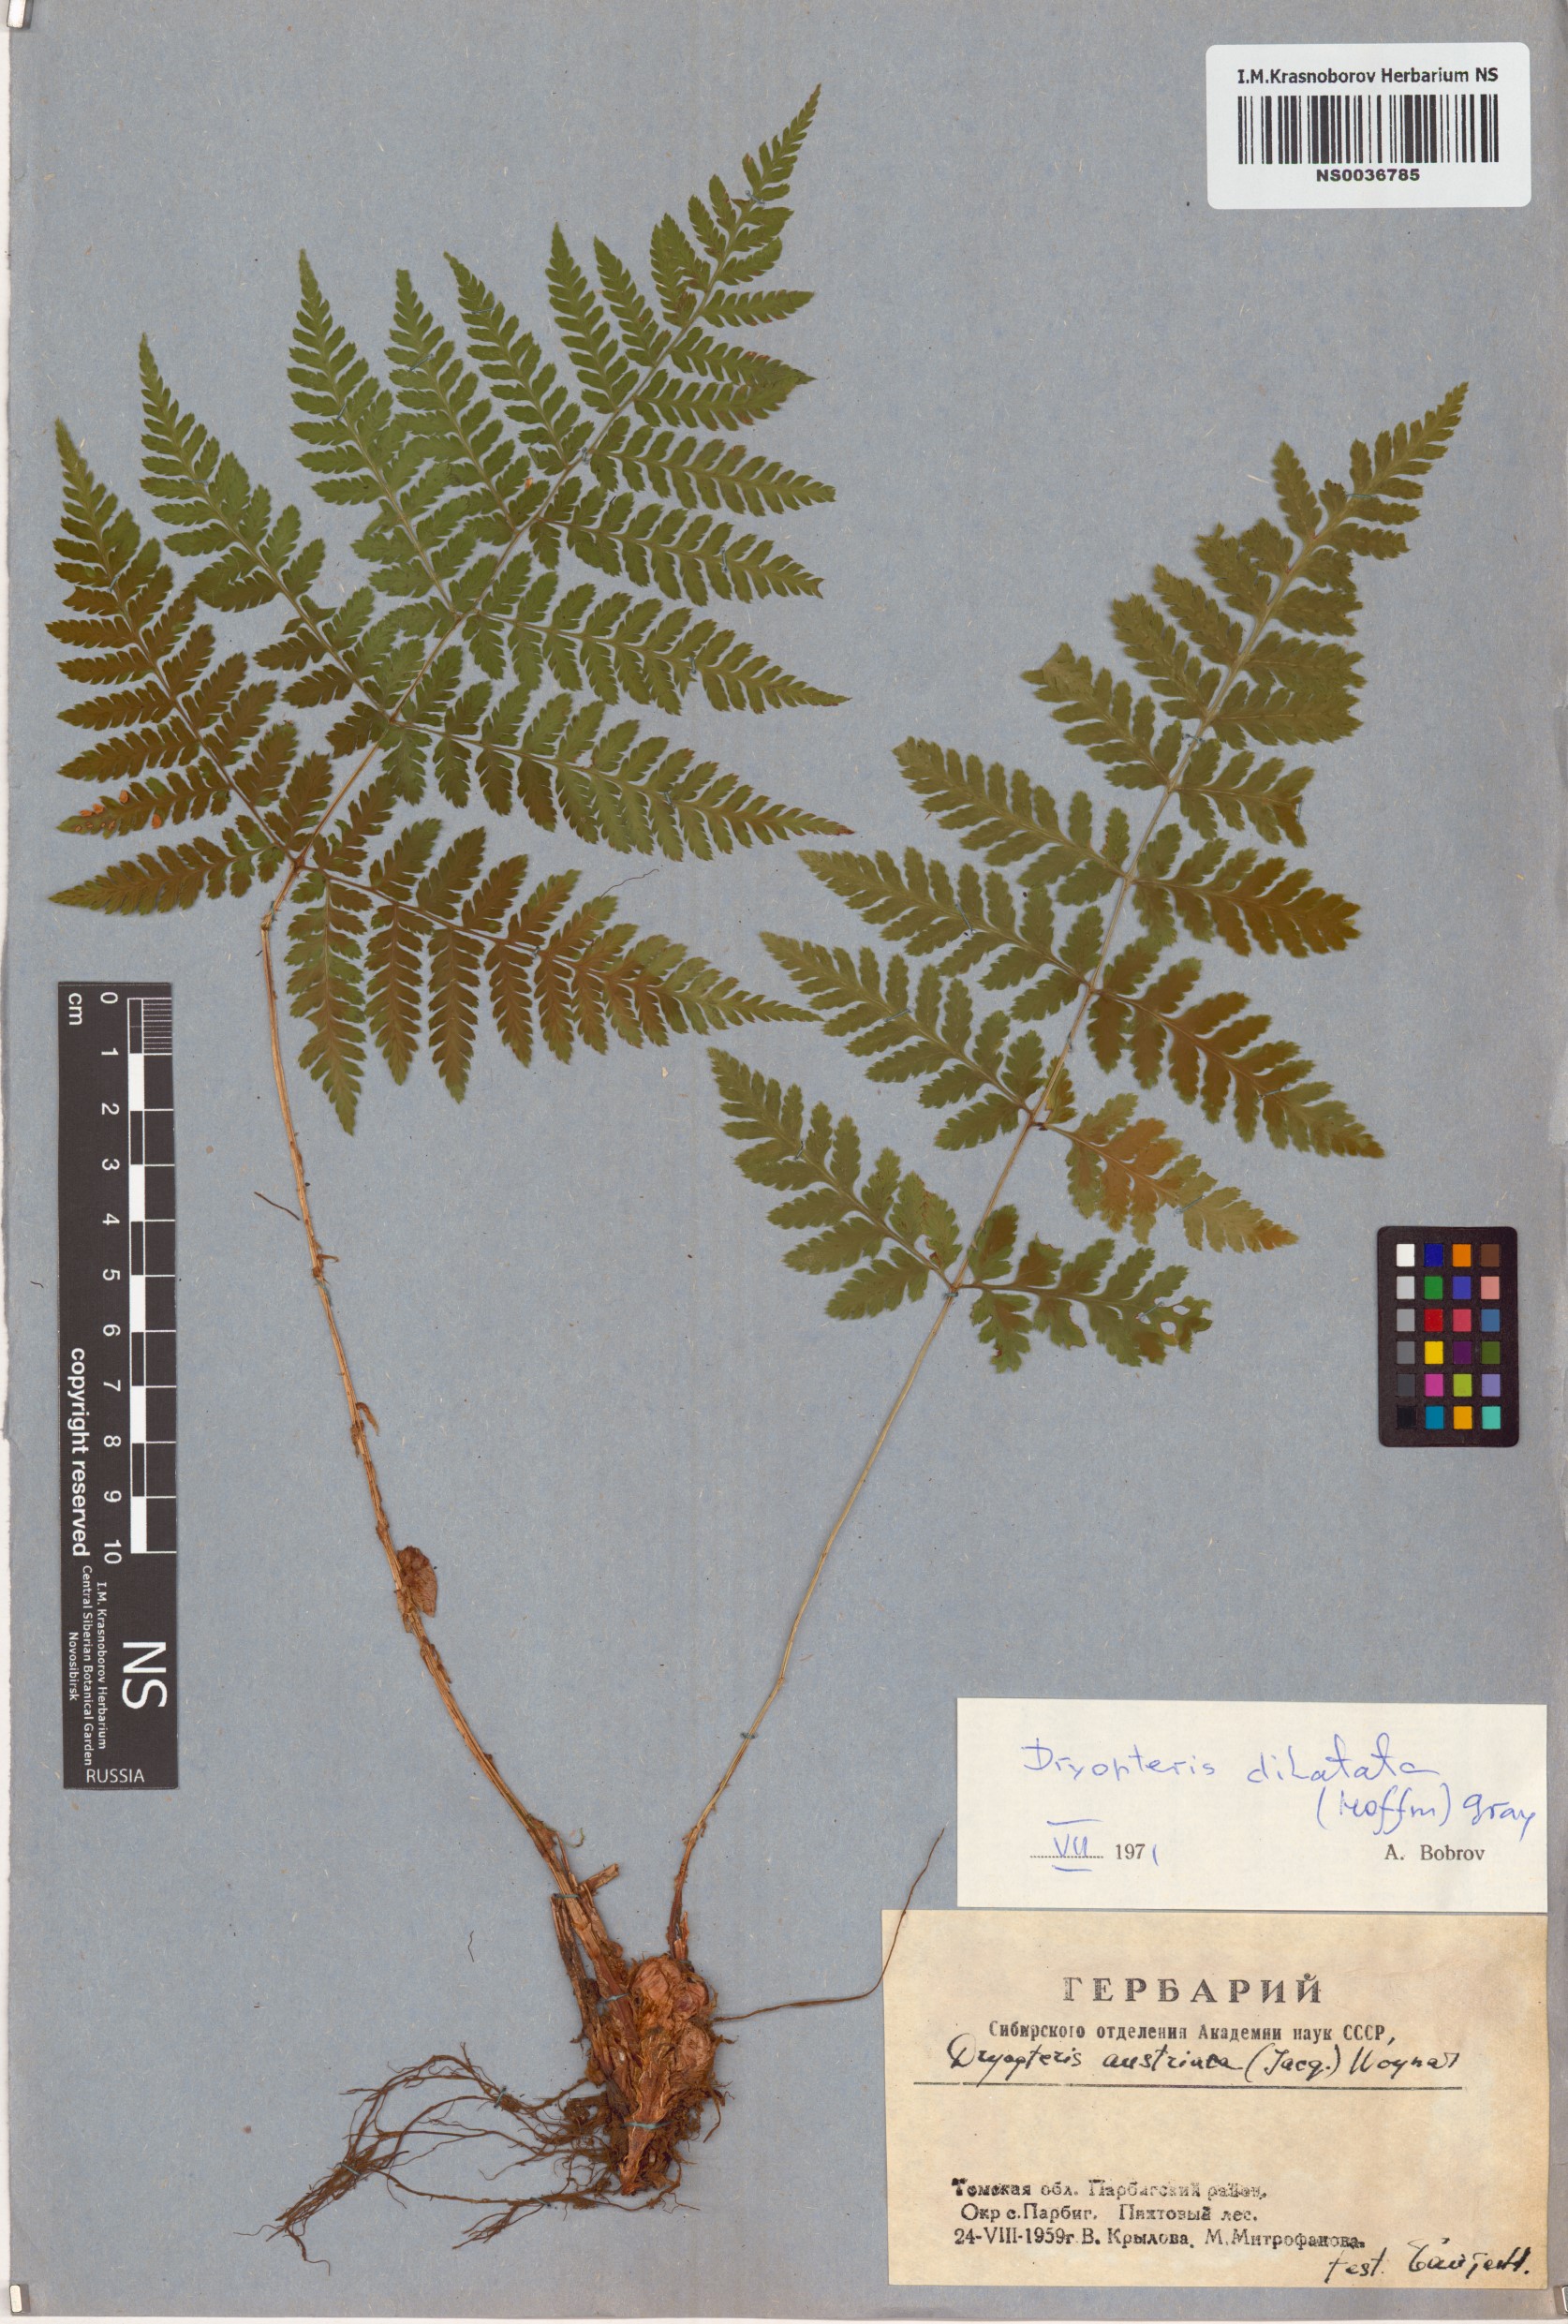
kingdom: Plantae
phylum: Tracheophyta
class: Polypodiopsida
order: Polypodiales
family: Dryopteridaceae
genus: Dryopteris
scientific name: Dryopteris dilatata
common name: Broad buckler-fern
